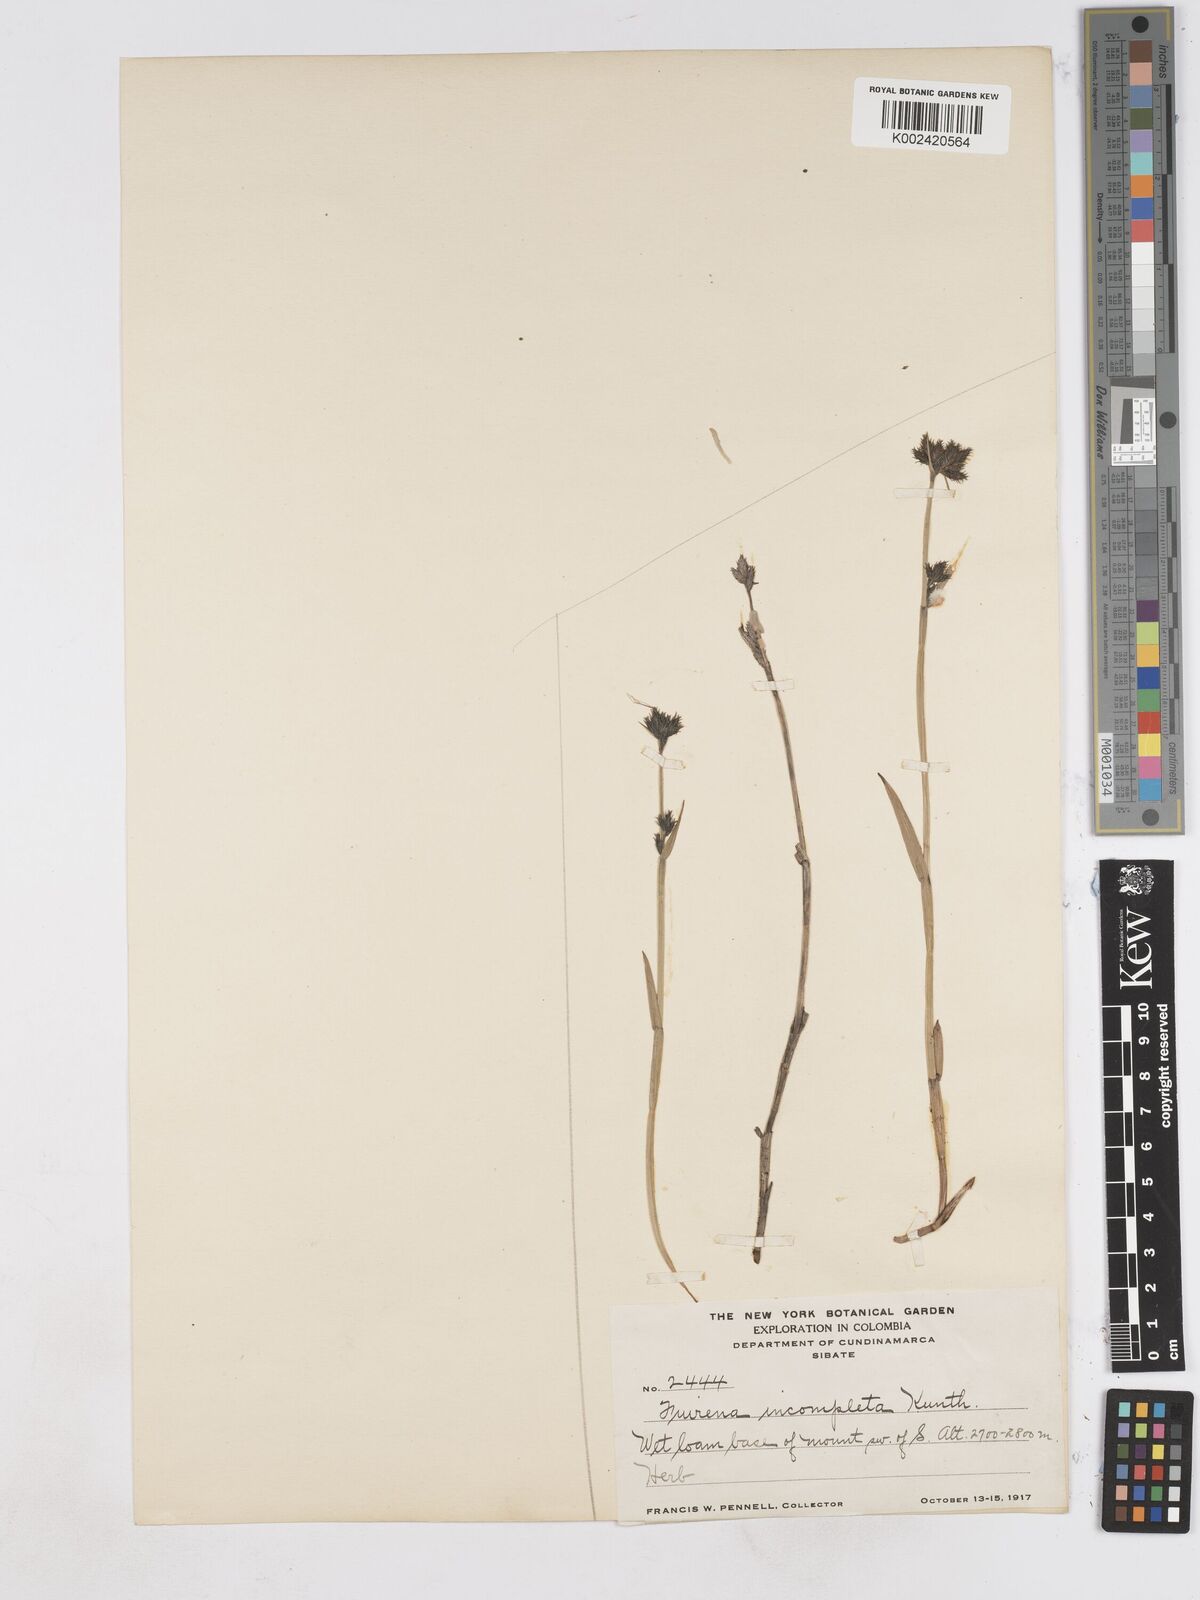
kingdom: Plantae
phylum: Tracheophyta
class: Liliopsida
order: Poales
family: Cyperaceae
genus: Fuirena
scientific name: Fuirena incompleta
